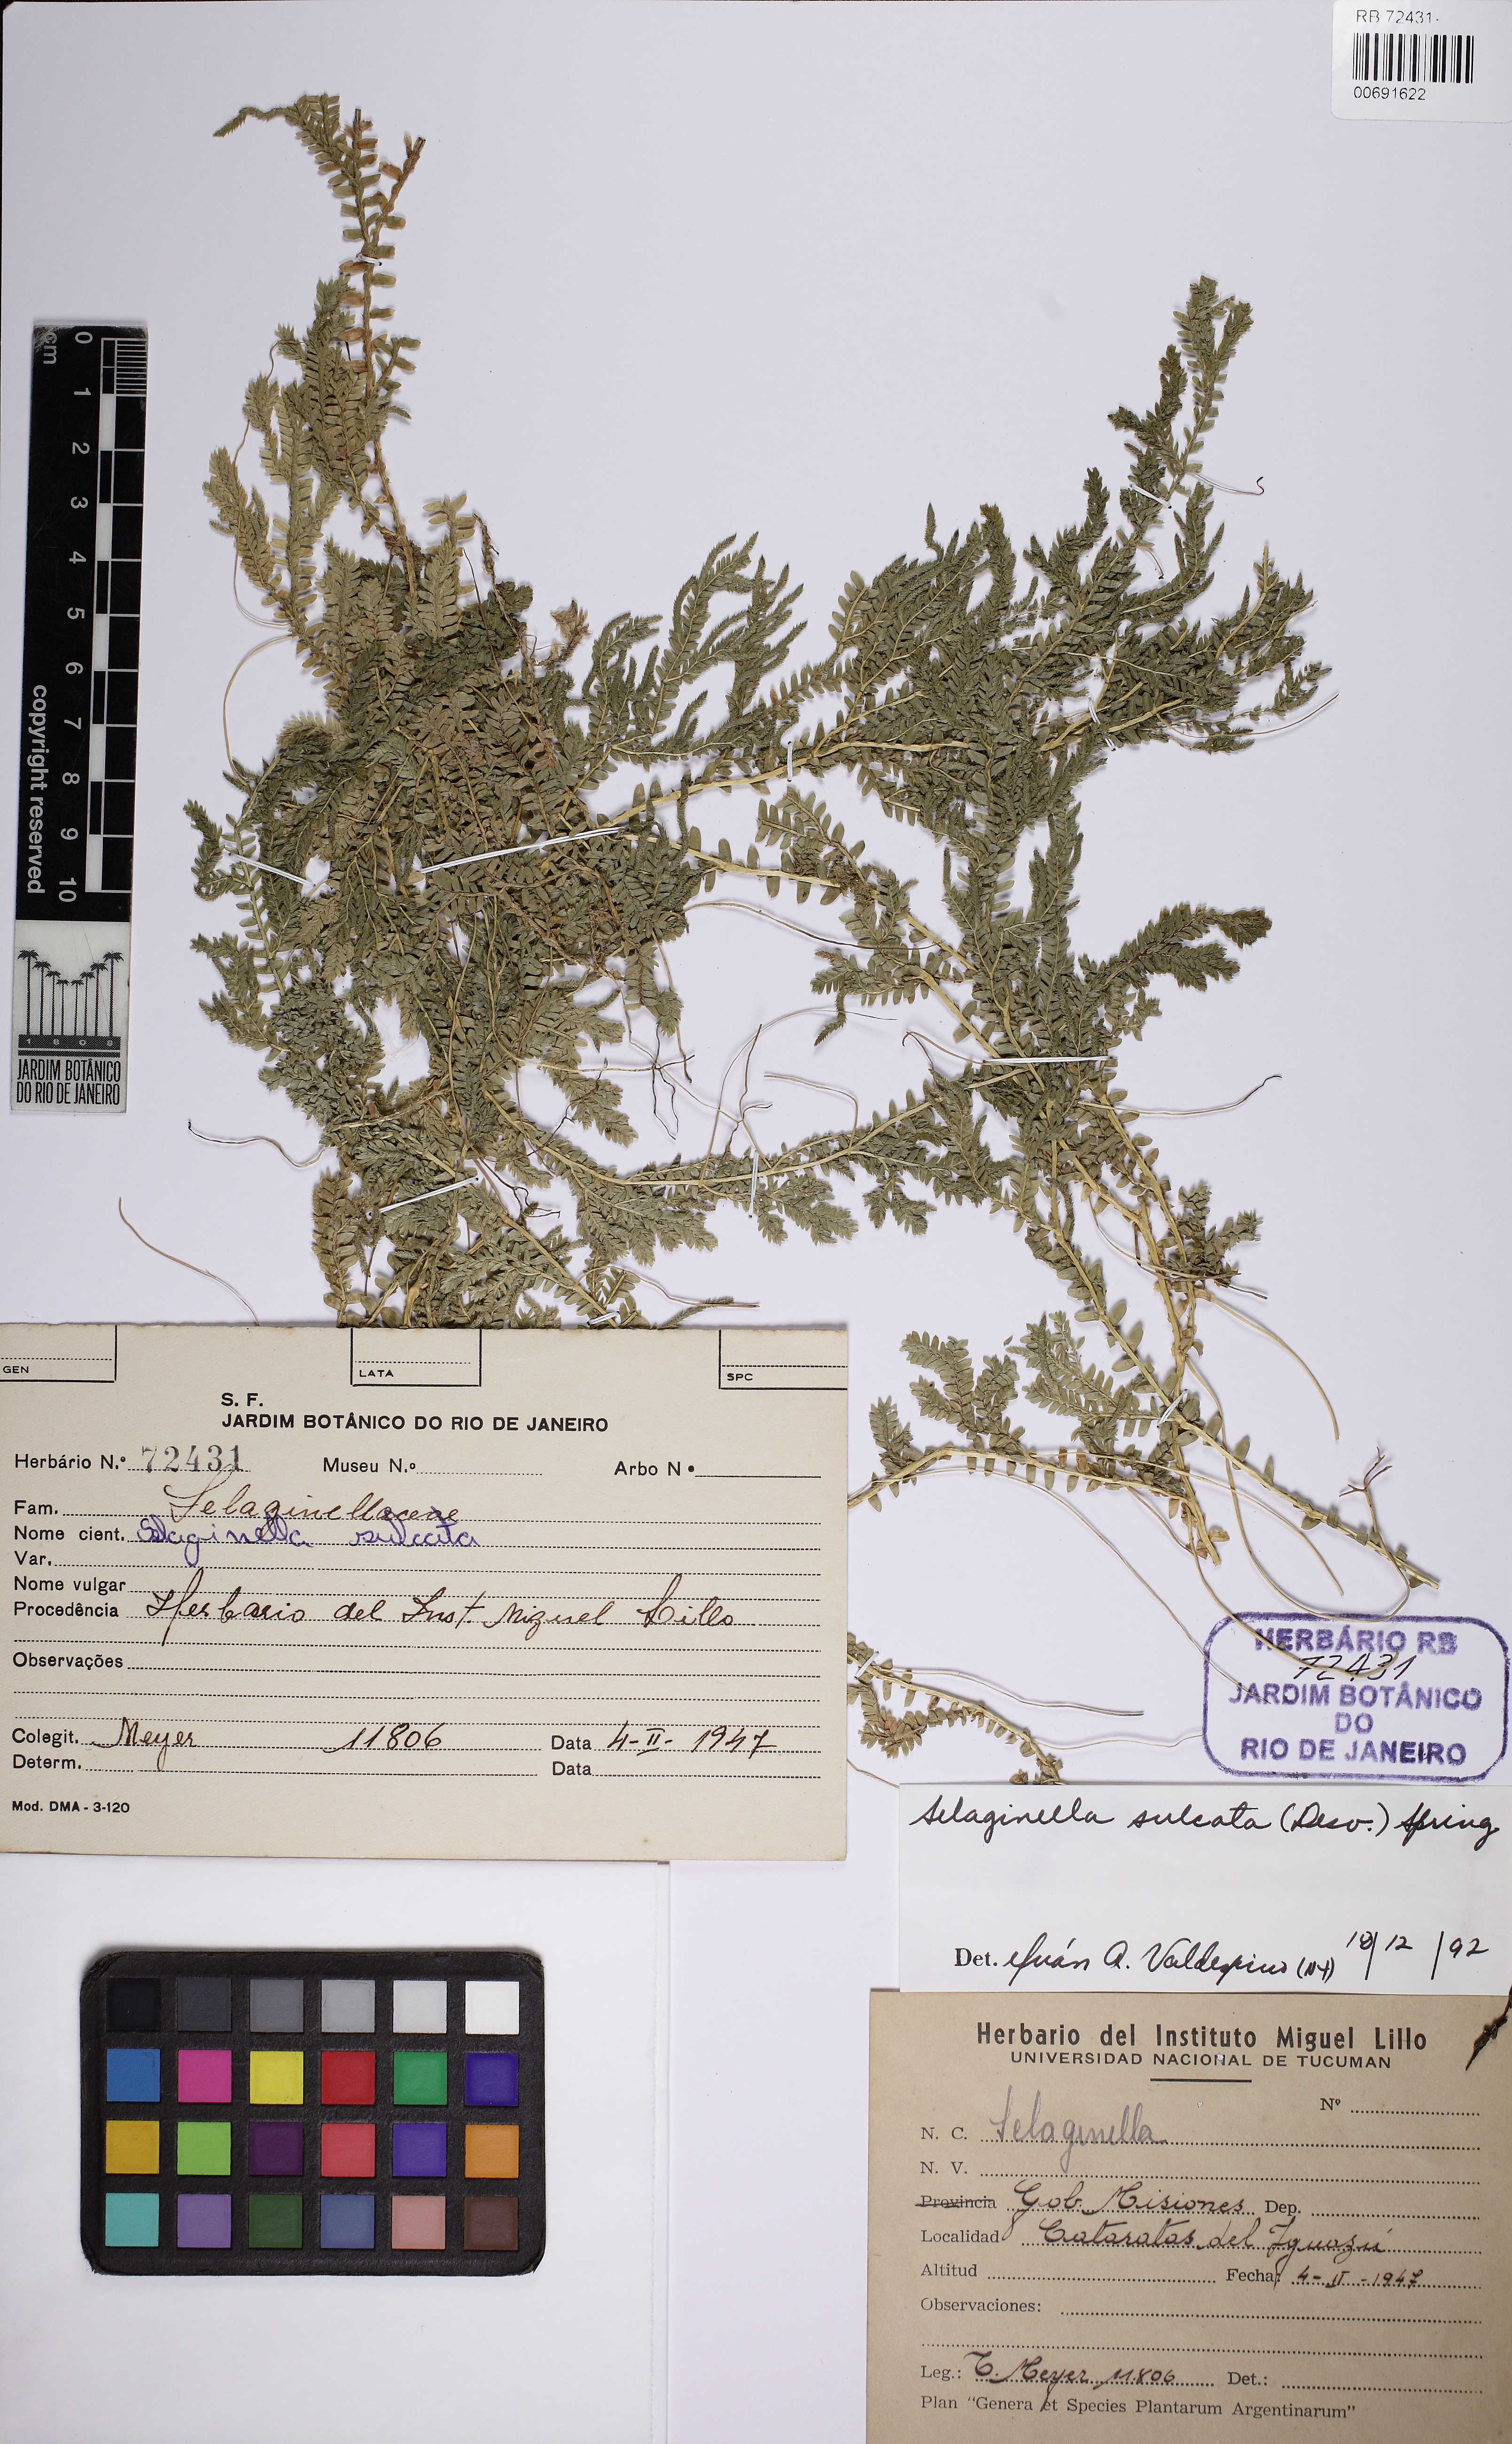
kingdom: Plantae
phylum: Tracheophyta
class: Lycopodiopsida
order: Selaginellales
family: Selaginellaceae
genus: Selaginella
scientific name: Selaginella sulcata
